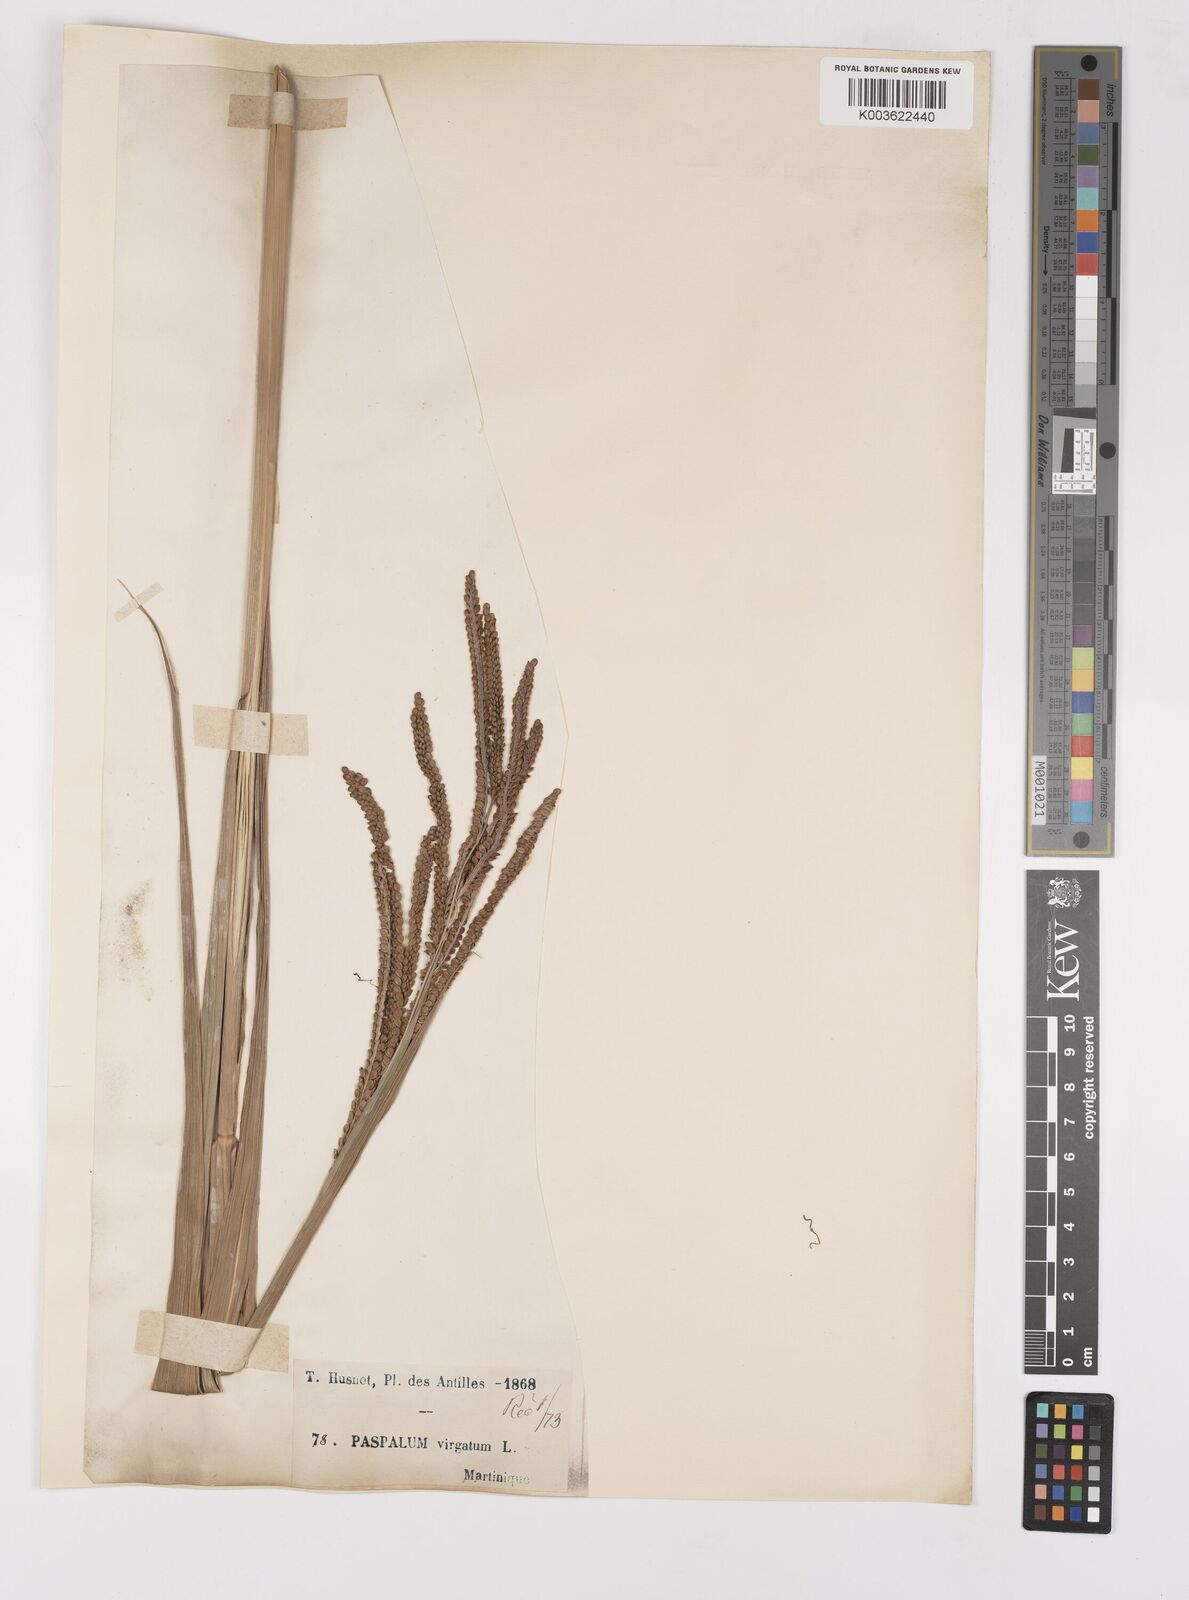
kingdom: Plantae
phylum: Tracheophyta
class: Liliopsida
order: Poales
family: Poaceae
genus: Paspalum
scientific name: Paspalum virgatum
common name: Talquezal
